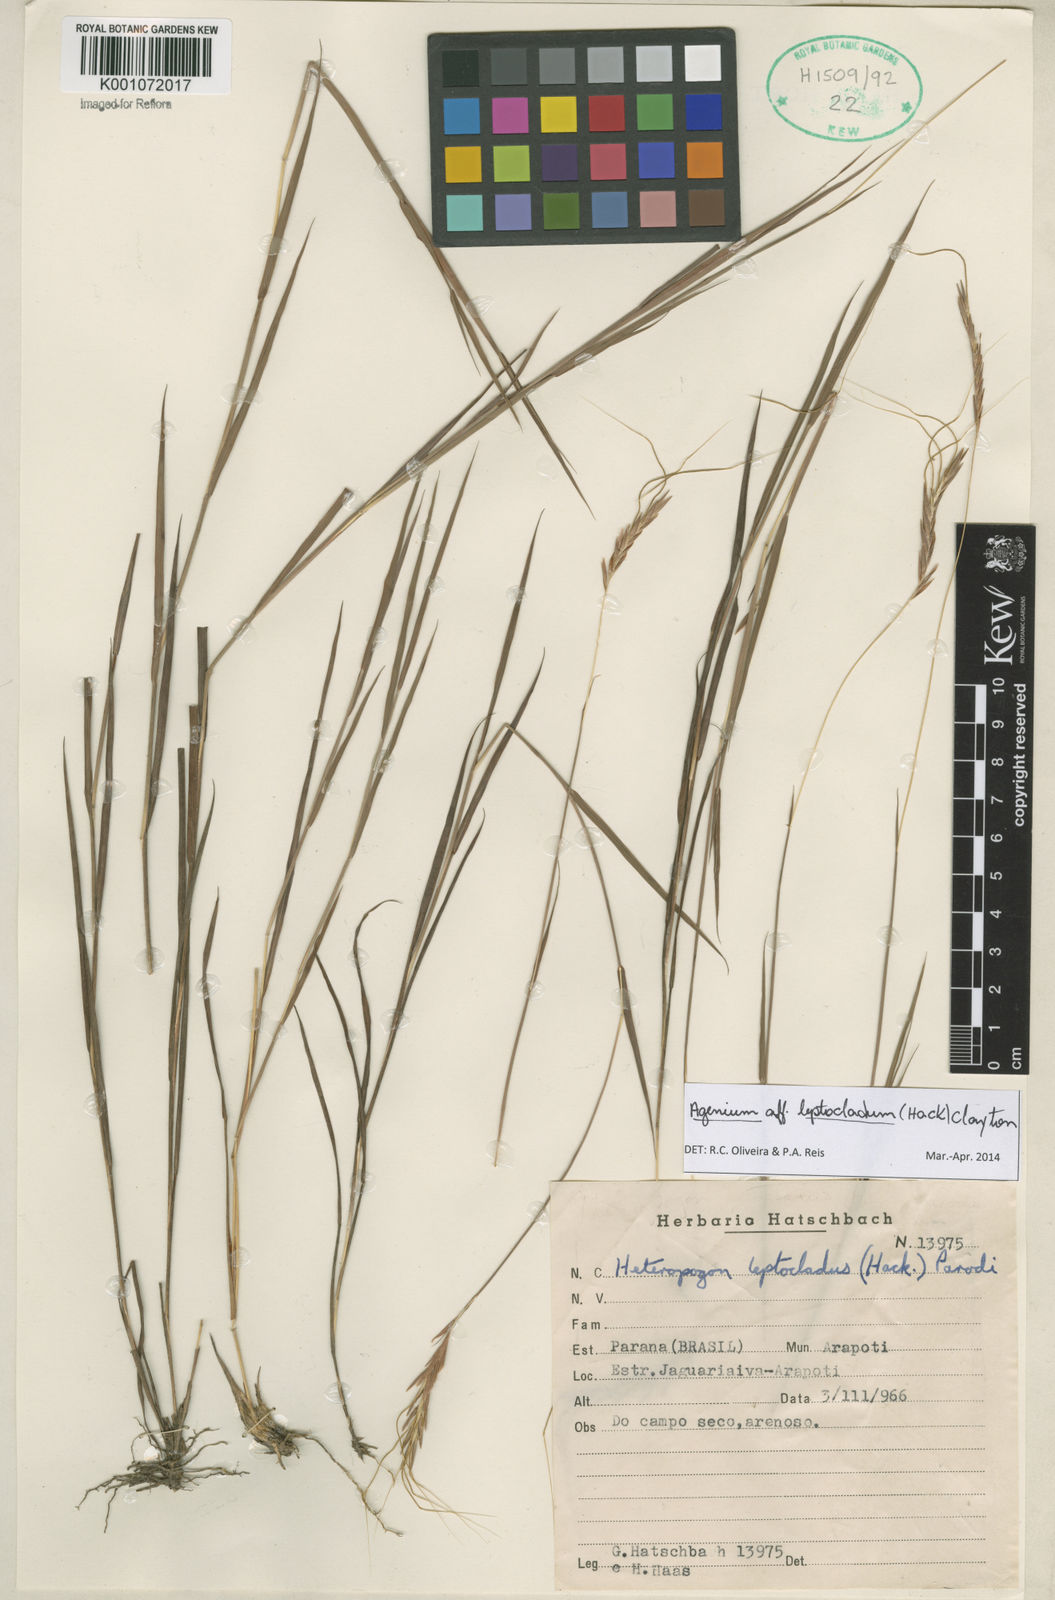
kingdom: Plantae
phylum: Tracheophyta
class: Liliopsida
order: Poales
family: Poaceae
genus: Agenium
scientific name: Agenium leptocladum
